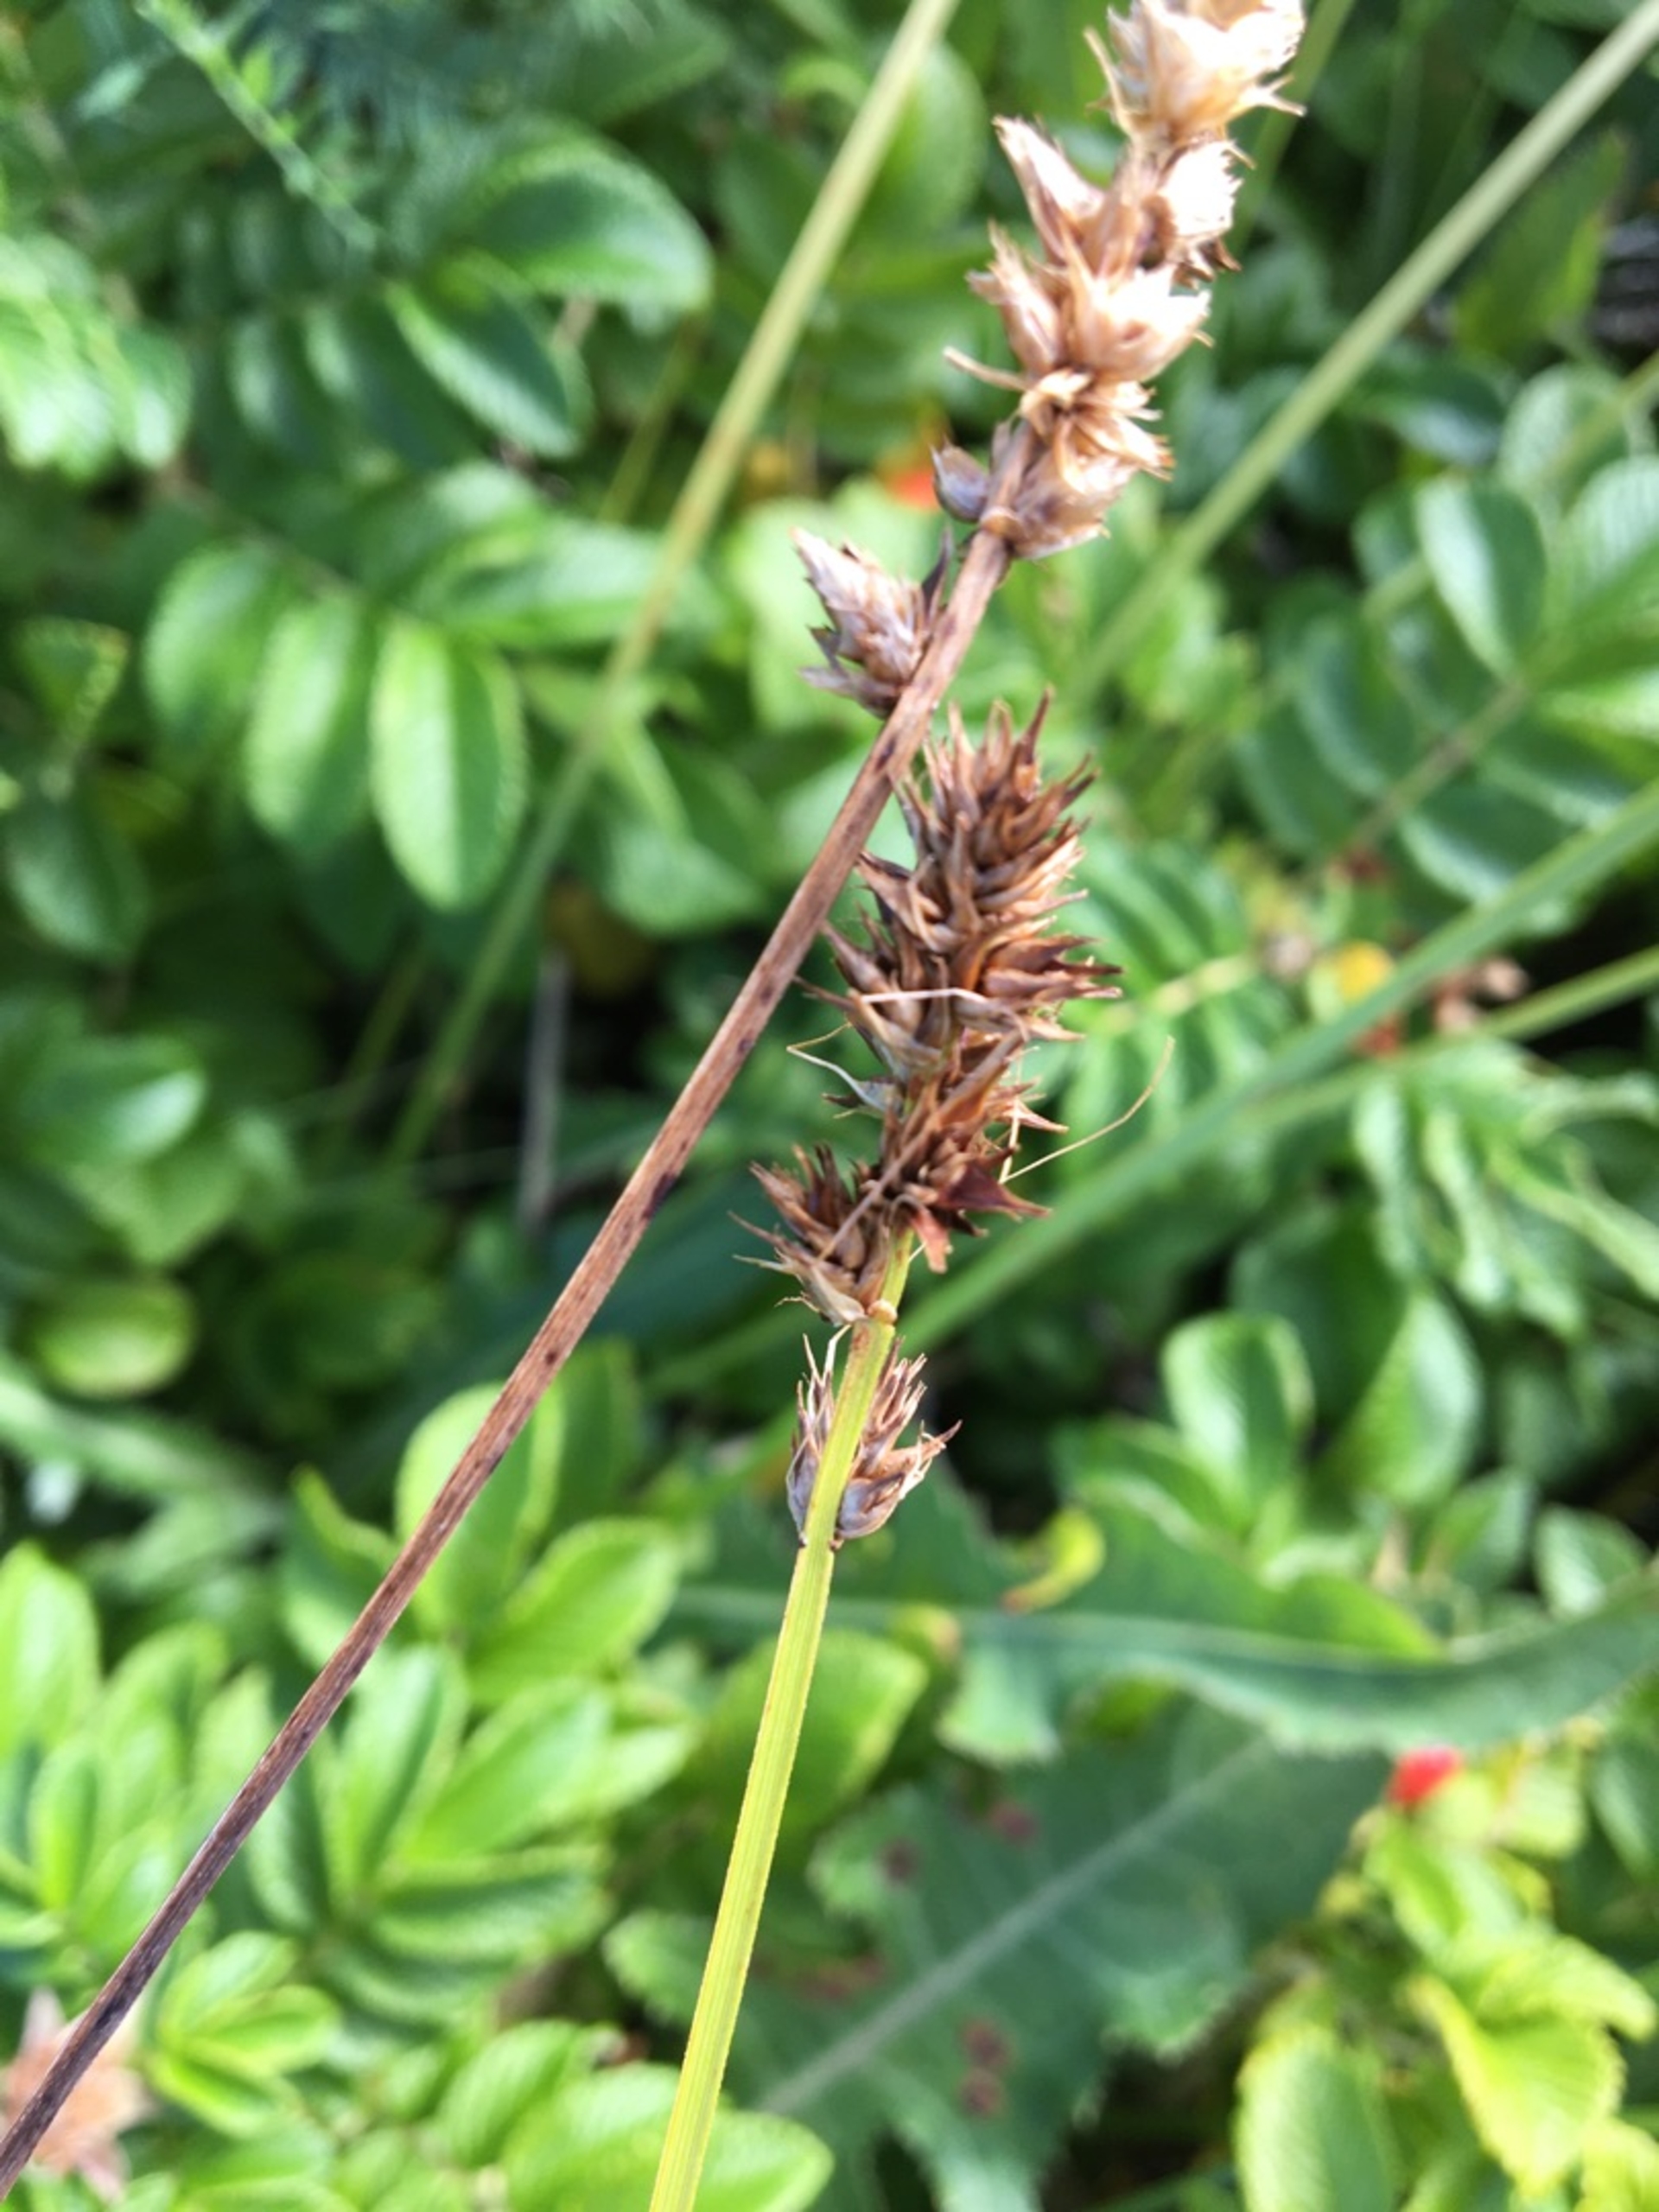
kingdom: Plantae
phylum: Tracheophyta
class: Liliopsida
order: Poales
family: Cyperaceae
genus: Carex
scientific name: Carex otrubae
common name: Sylt-star
